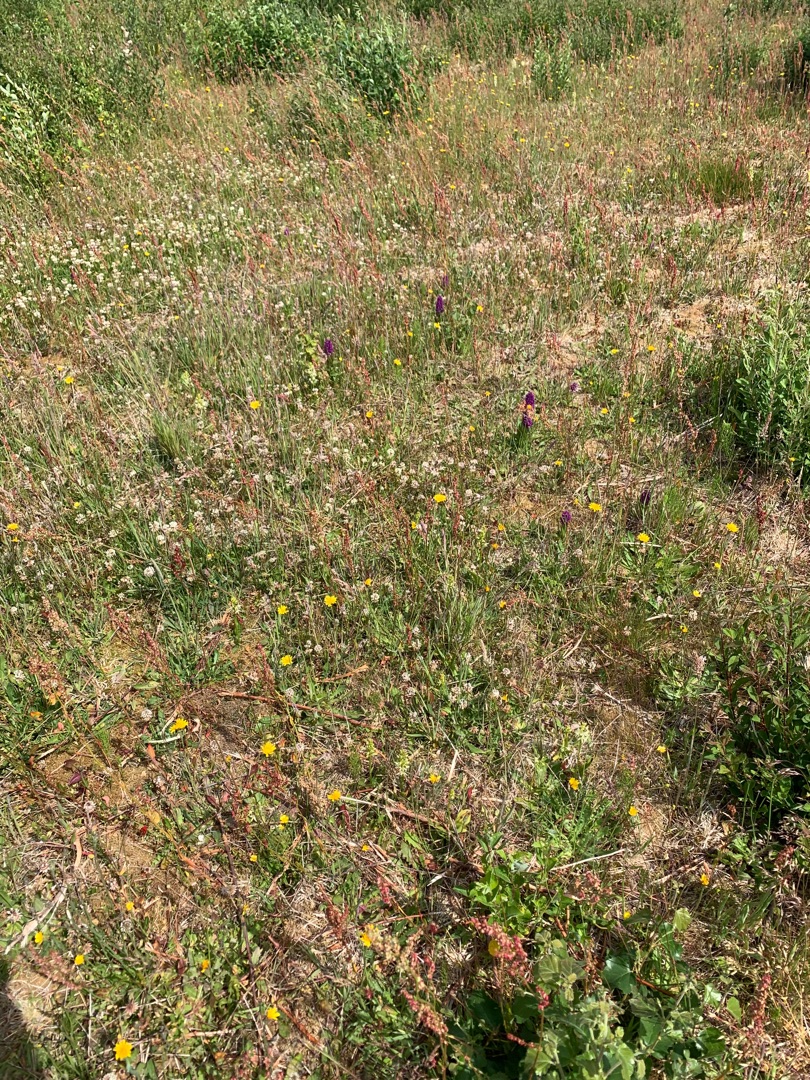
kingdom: Plantae
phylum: Tracheophyta
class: Liliopsida
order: Asparagales
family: Orchidaceae
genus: Platanthera
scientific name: Platanthera bifolia
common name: Bakke-gøgelilje
